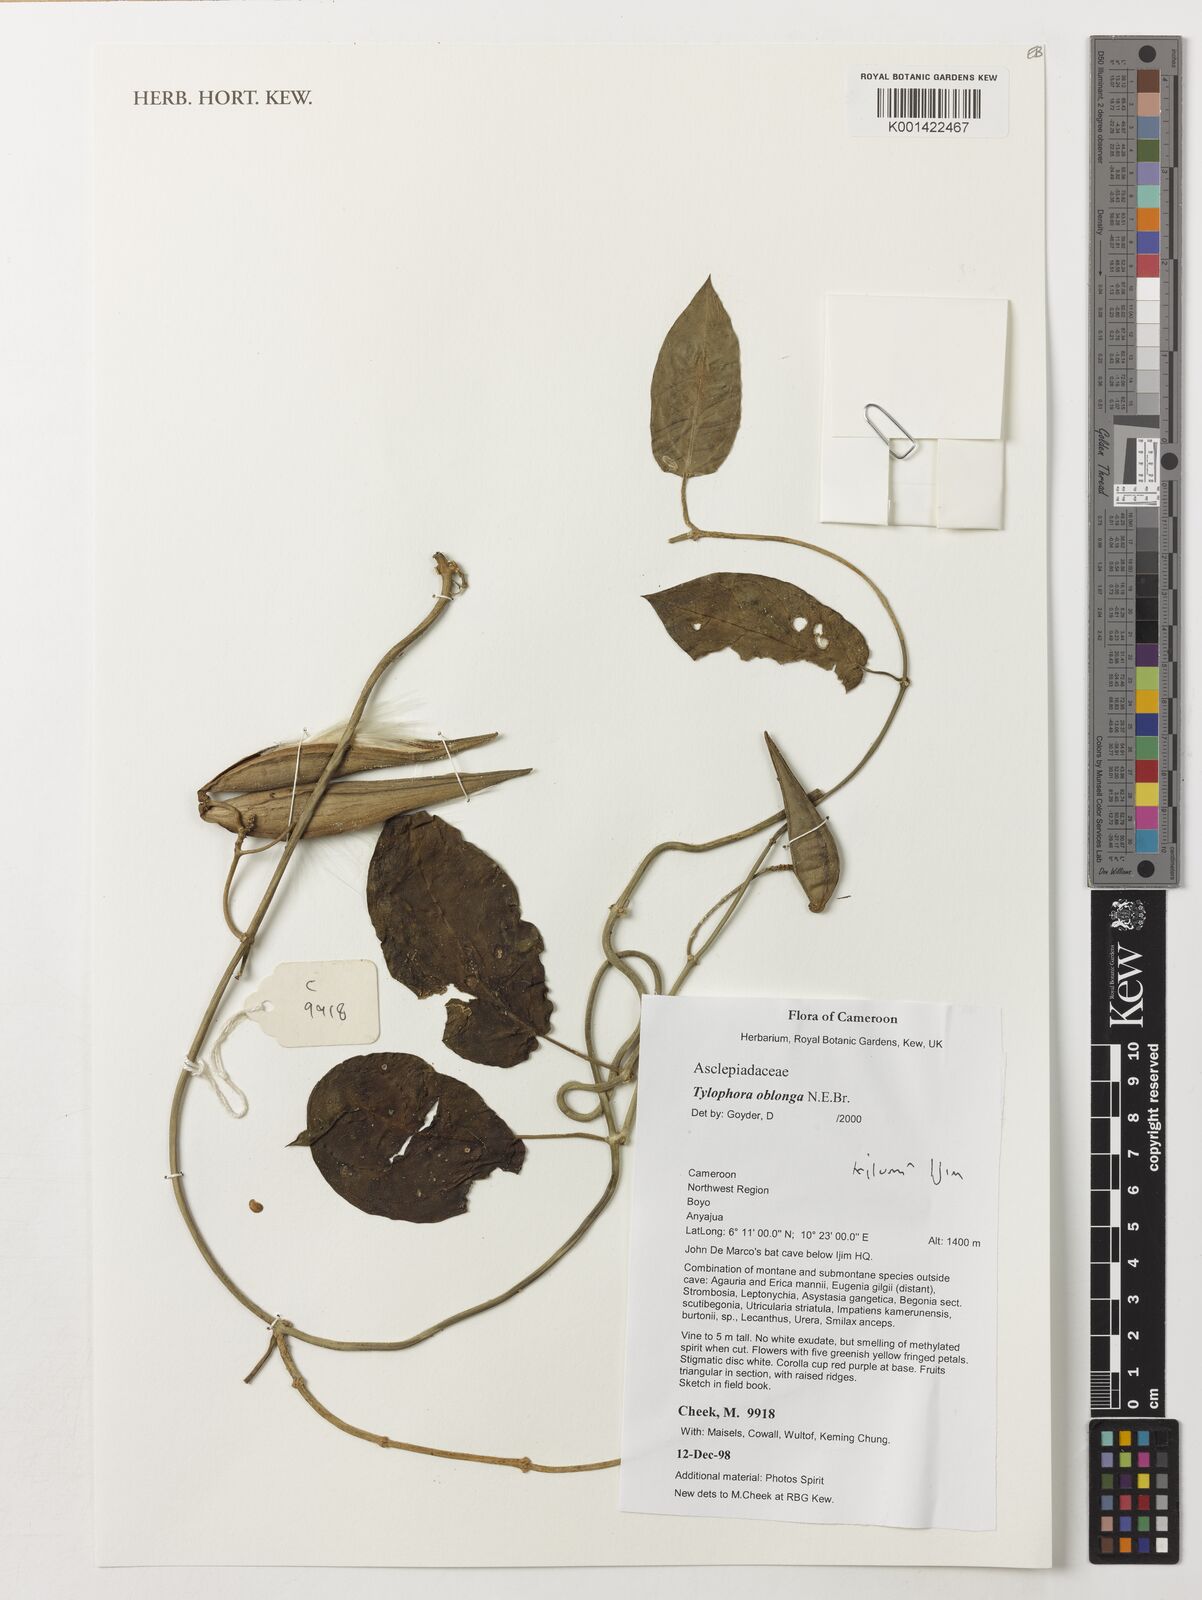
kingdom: Plantae
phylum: Tracheophyta
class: Magnoliopsida
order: Gentianales
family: Apocynaceae
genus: Vincetoxicum
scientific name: Vincetoxicum oblongum
